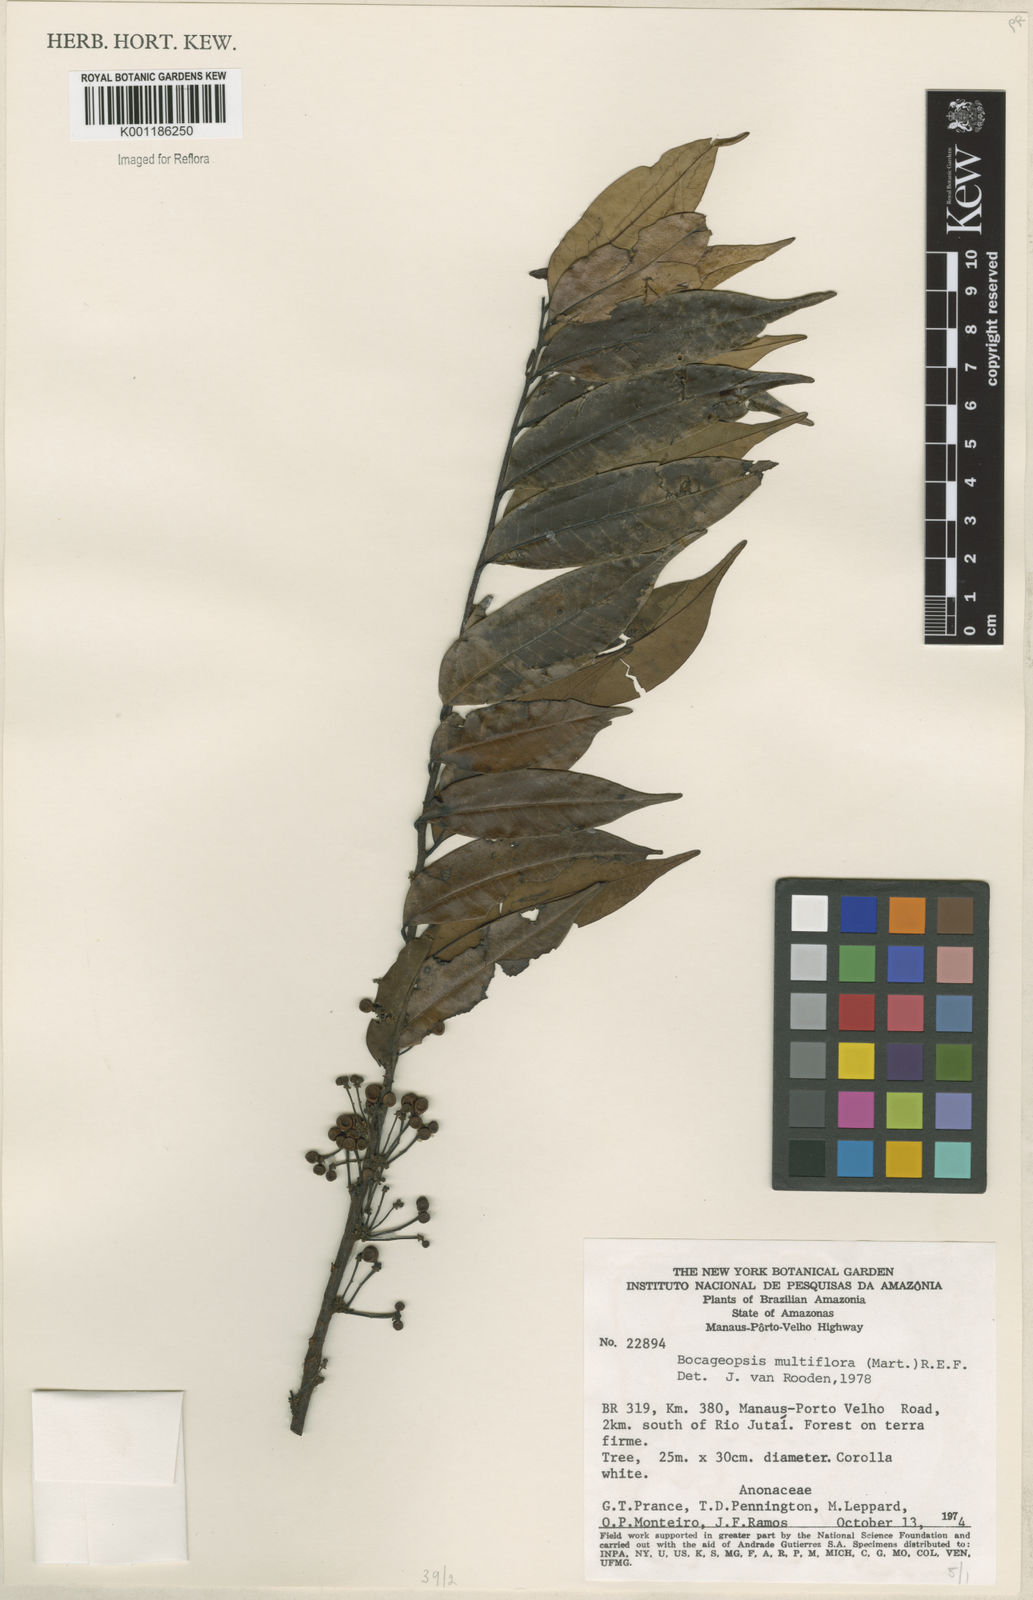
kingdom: Plantae
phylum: Tracheophyta
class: Magnoliopsida
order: Magnoliales
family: Annonaceae
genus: Bocageopsis
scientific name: Bocageopsis multiflora
